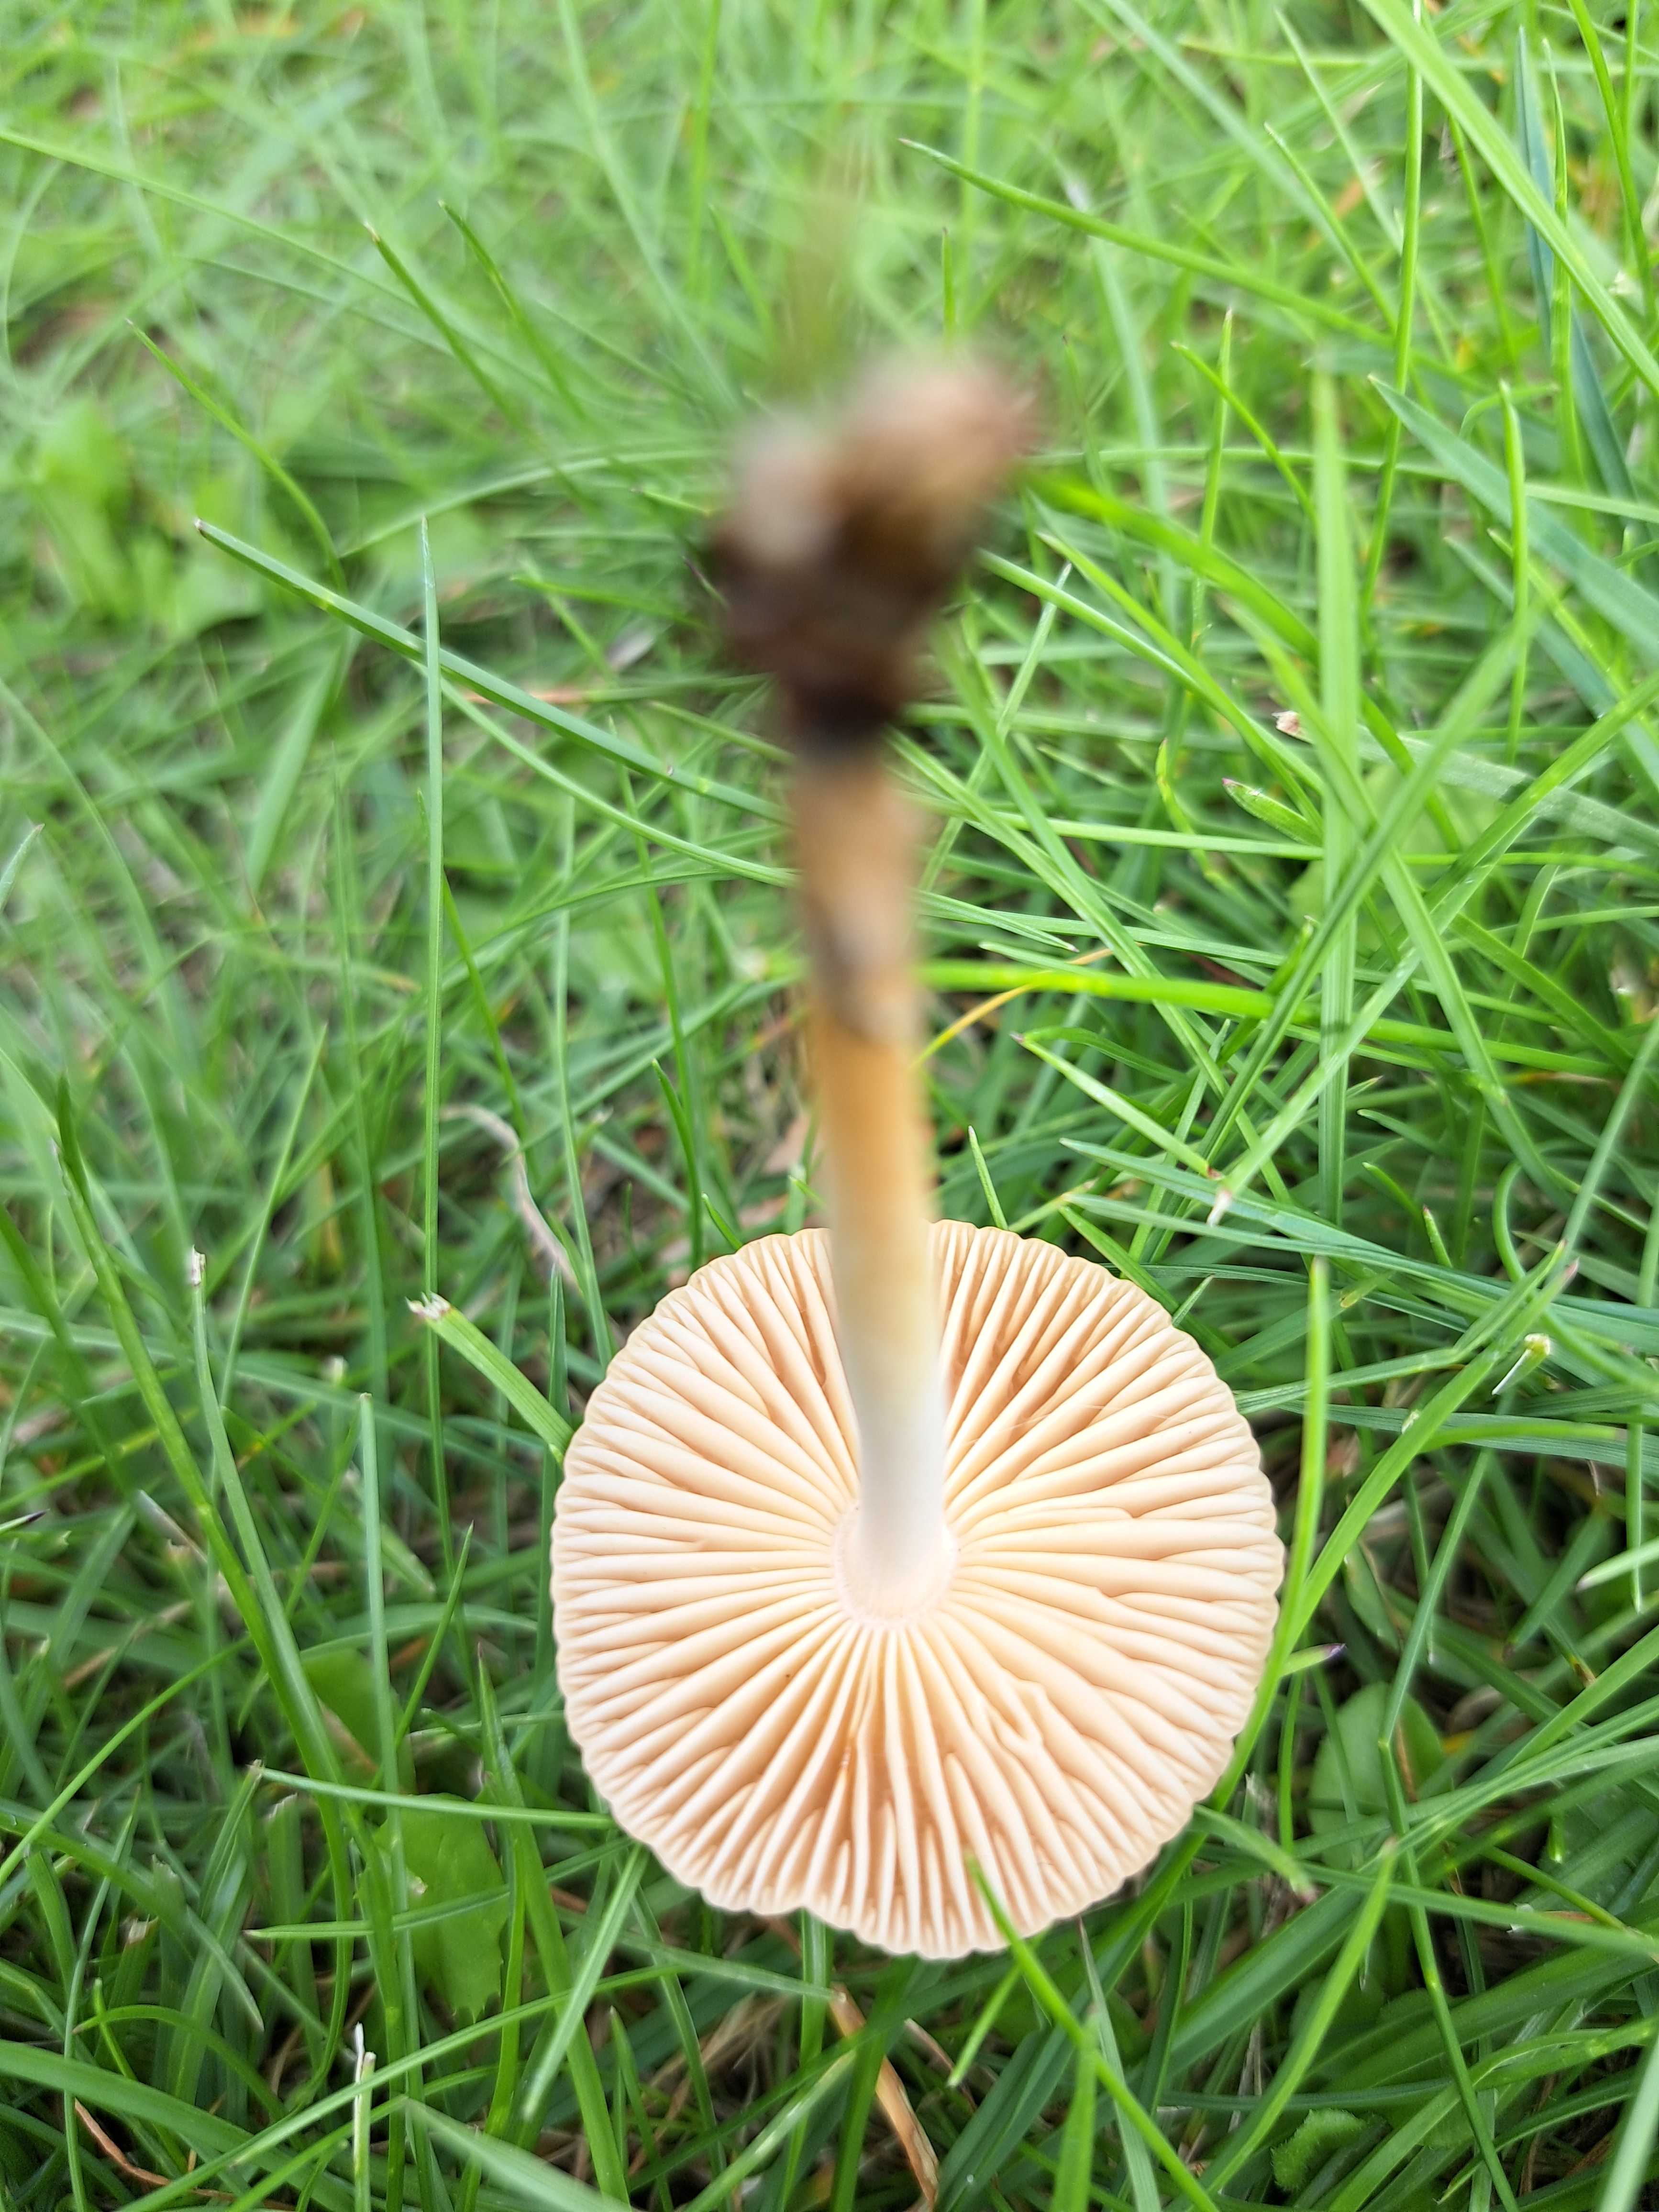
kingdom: Fungi
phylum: Basidiomycota
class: Agaricomycetes
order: Agaricales
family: Marasmiaceae
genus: Marasmius
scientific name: Marasmius oreades
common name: elledans-bruskhat
